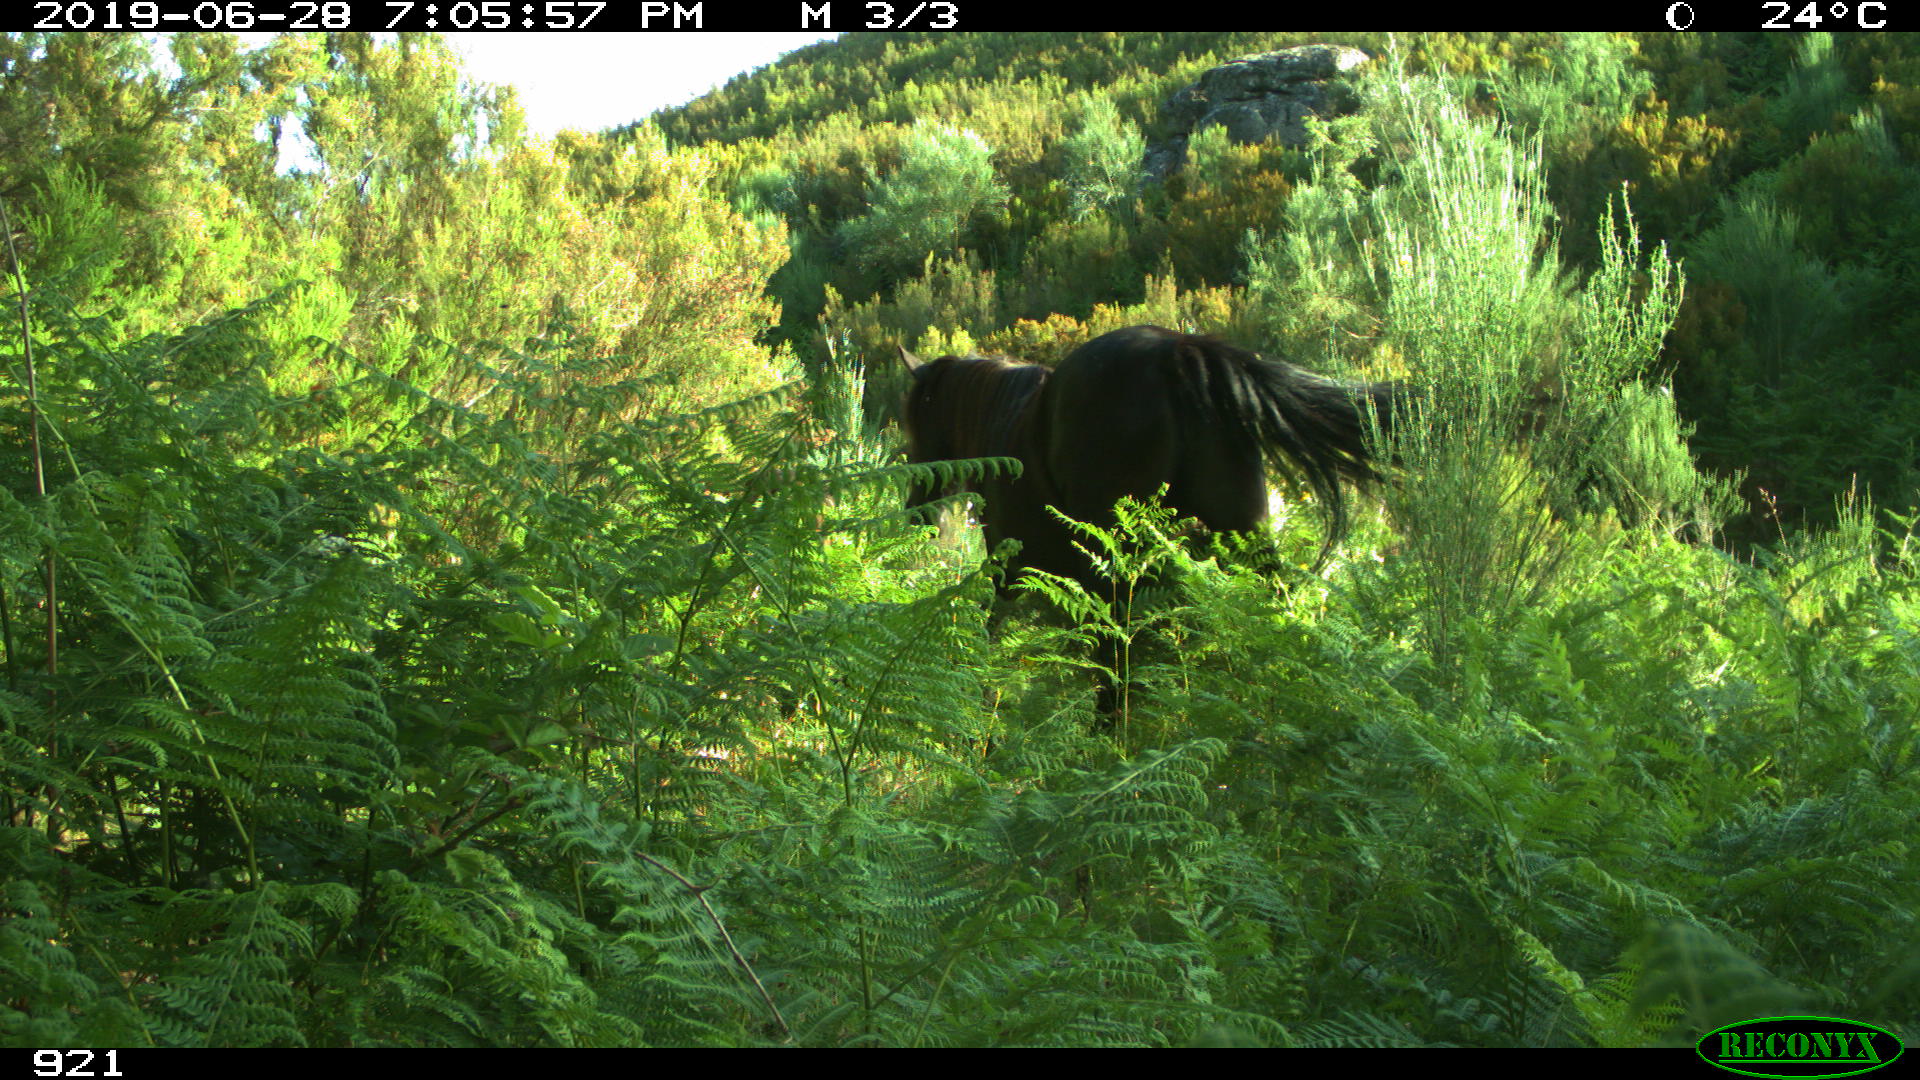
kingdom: Animalia
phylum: Chordata
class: Mammalia
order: Perissodactyla
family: Equidae
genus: Equus
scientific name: Equus caballus
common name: Horse
